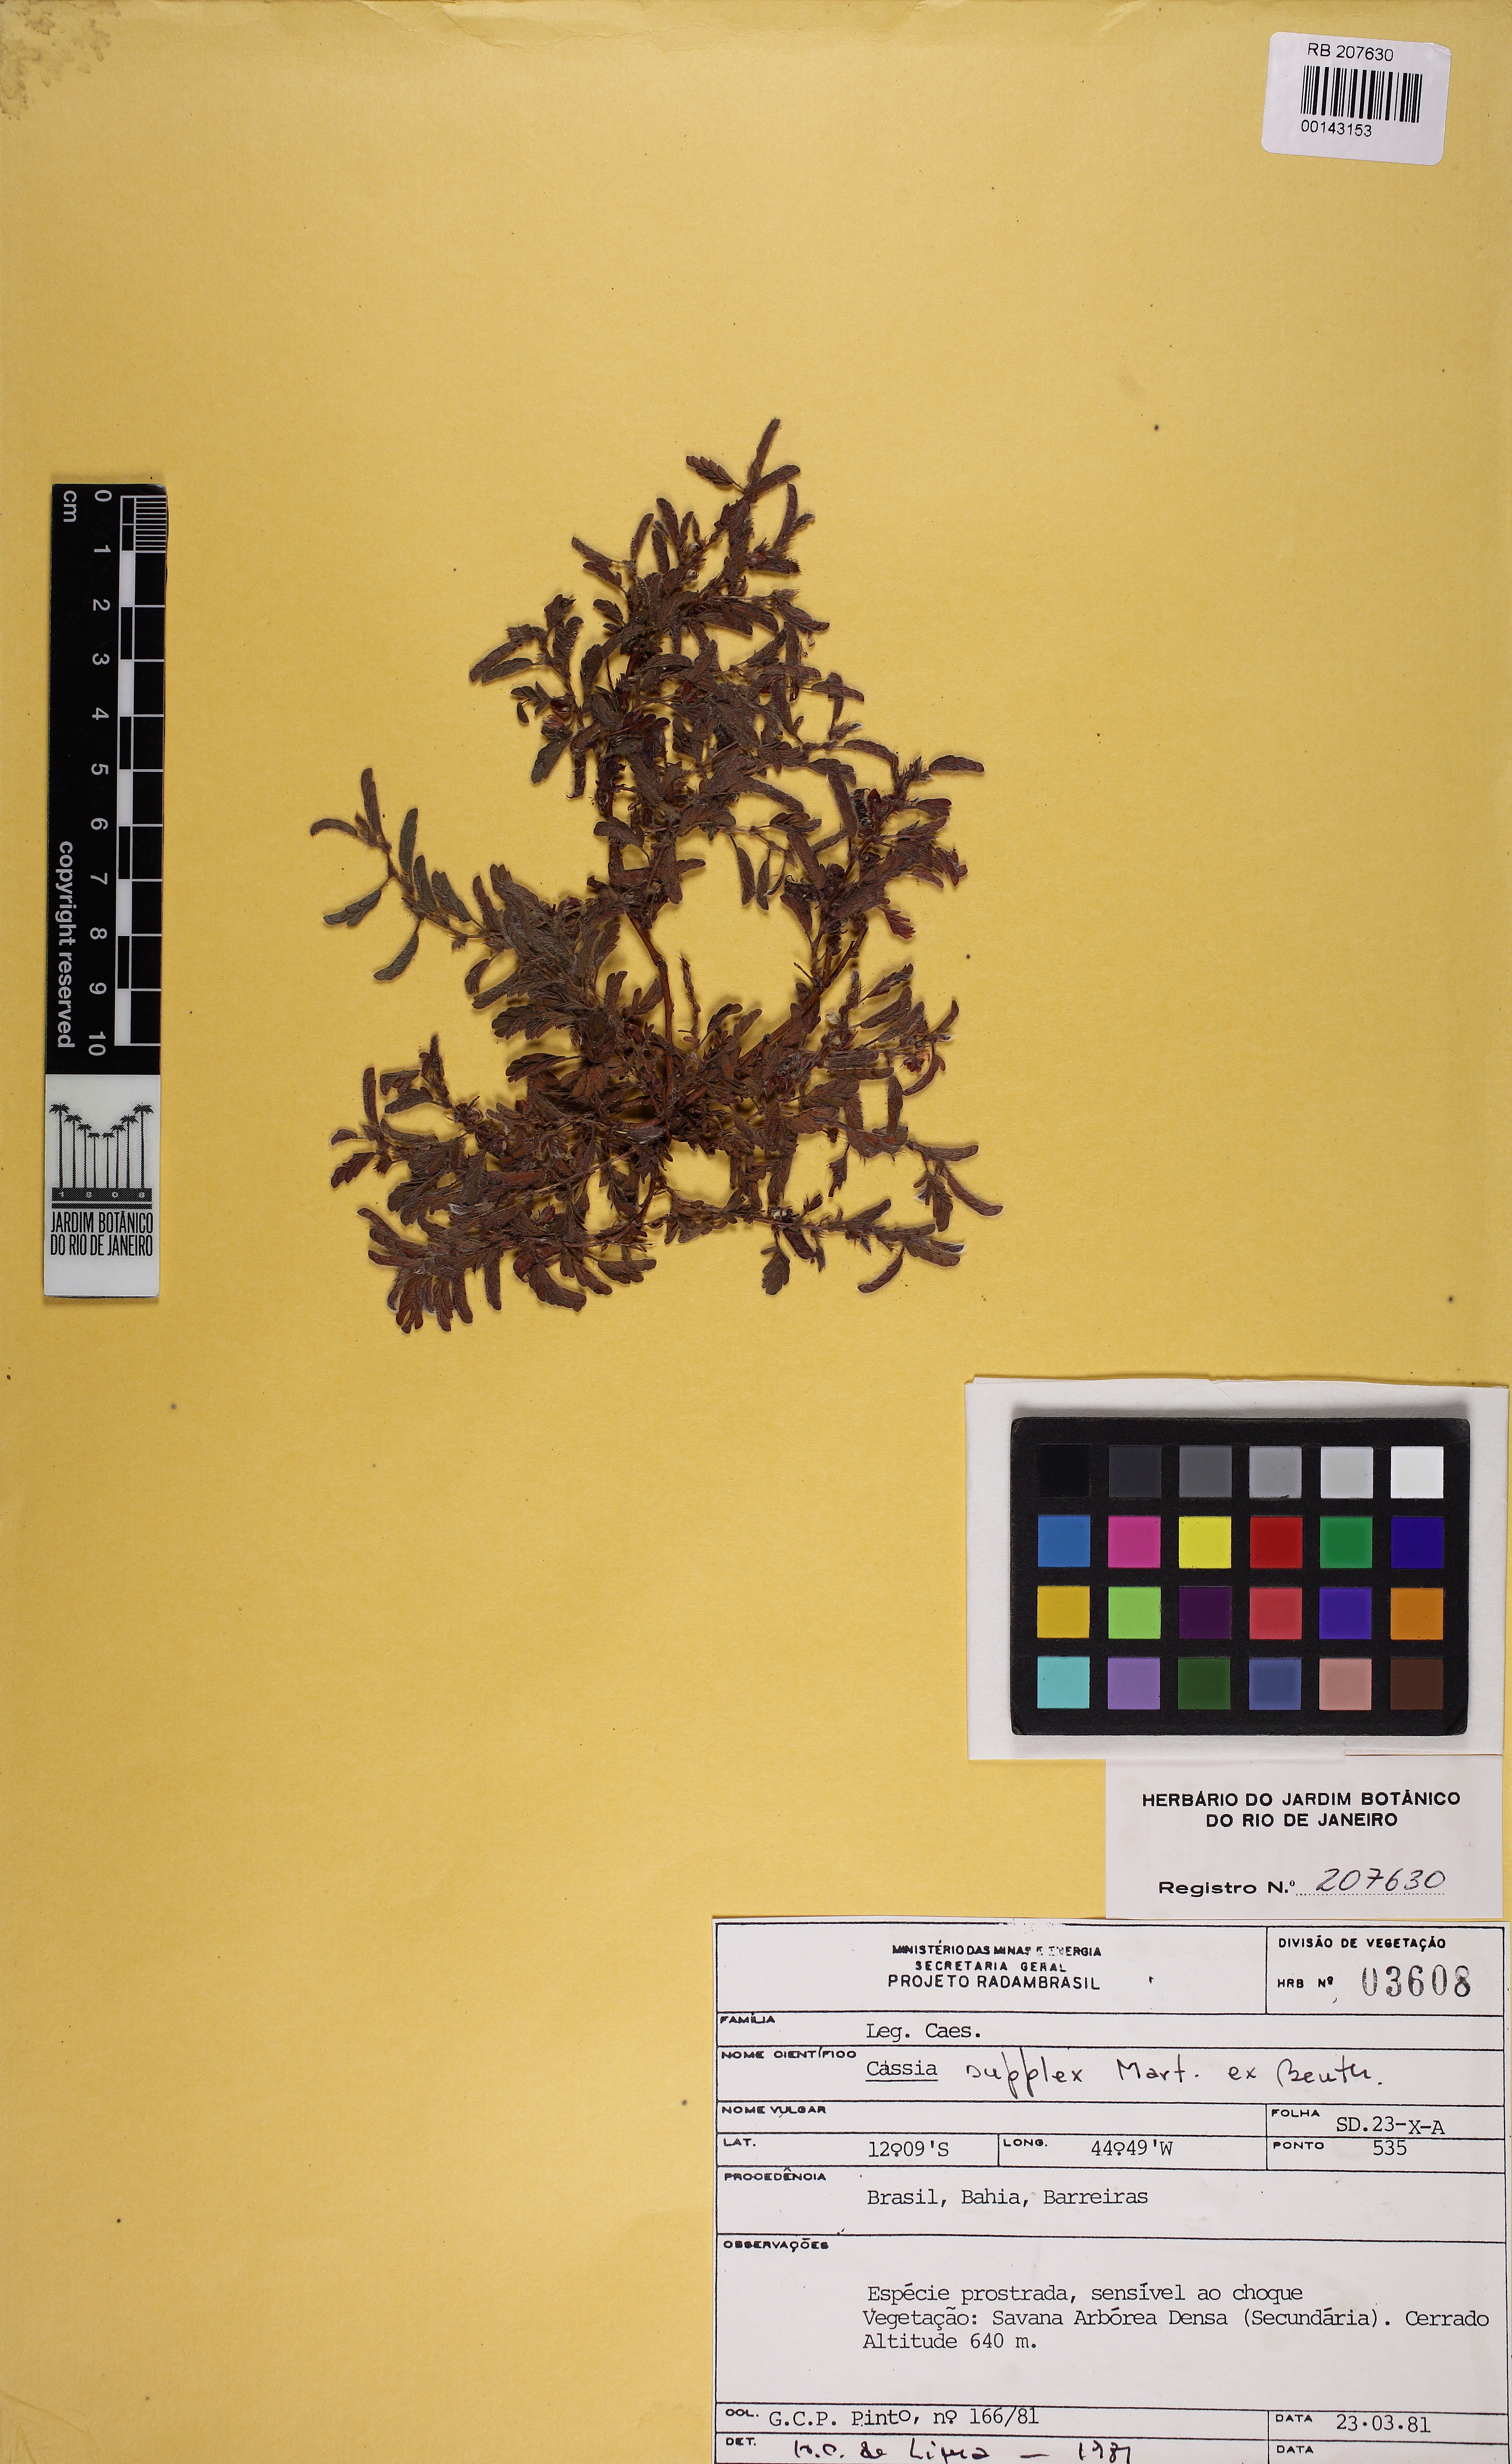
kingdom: Plantae
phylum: Tracheophyta
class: Magnoliopsida
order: Fabales
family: Fabaceae
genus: Chamaecrista
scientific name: Chamaecrista supplex
